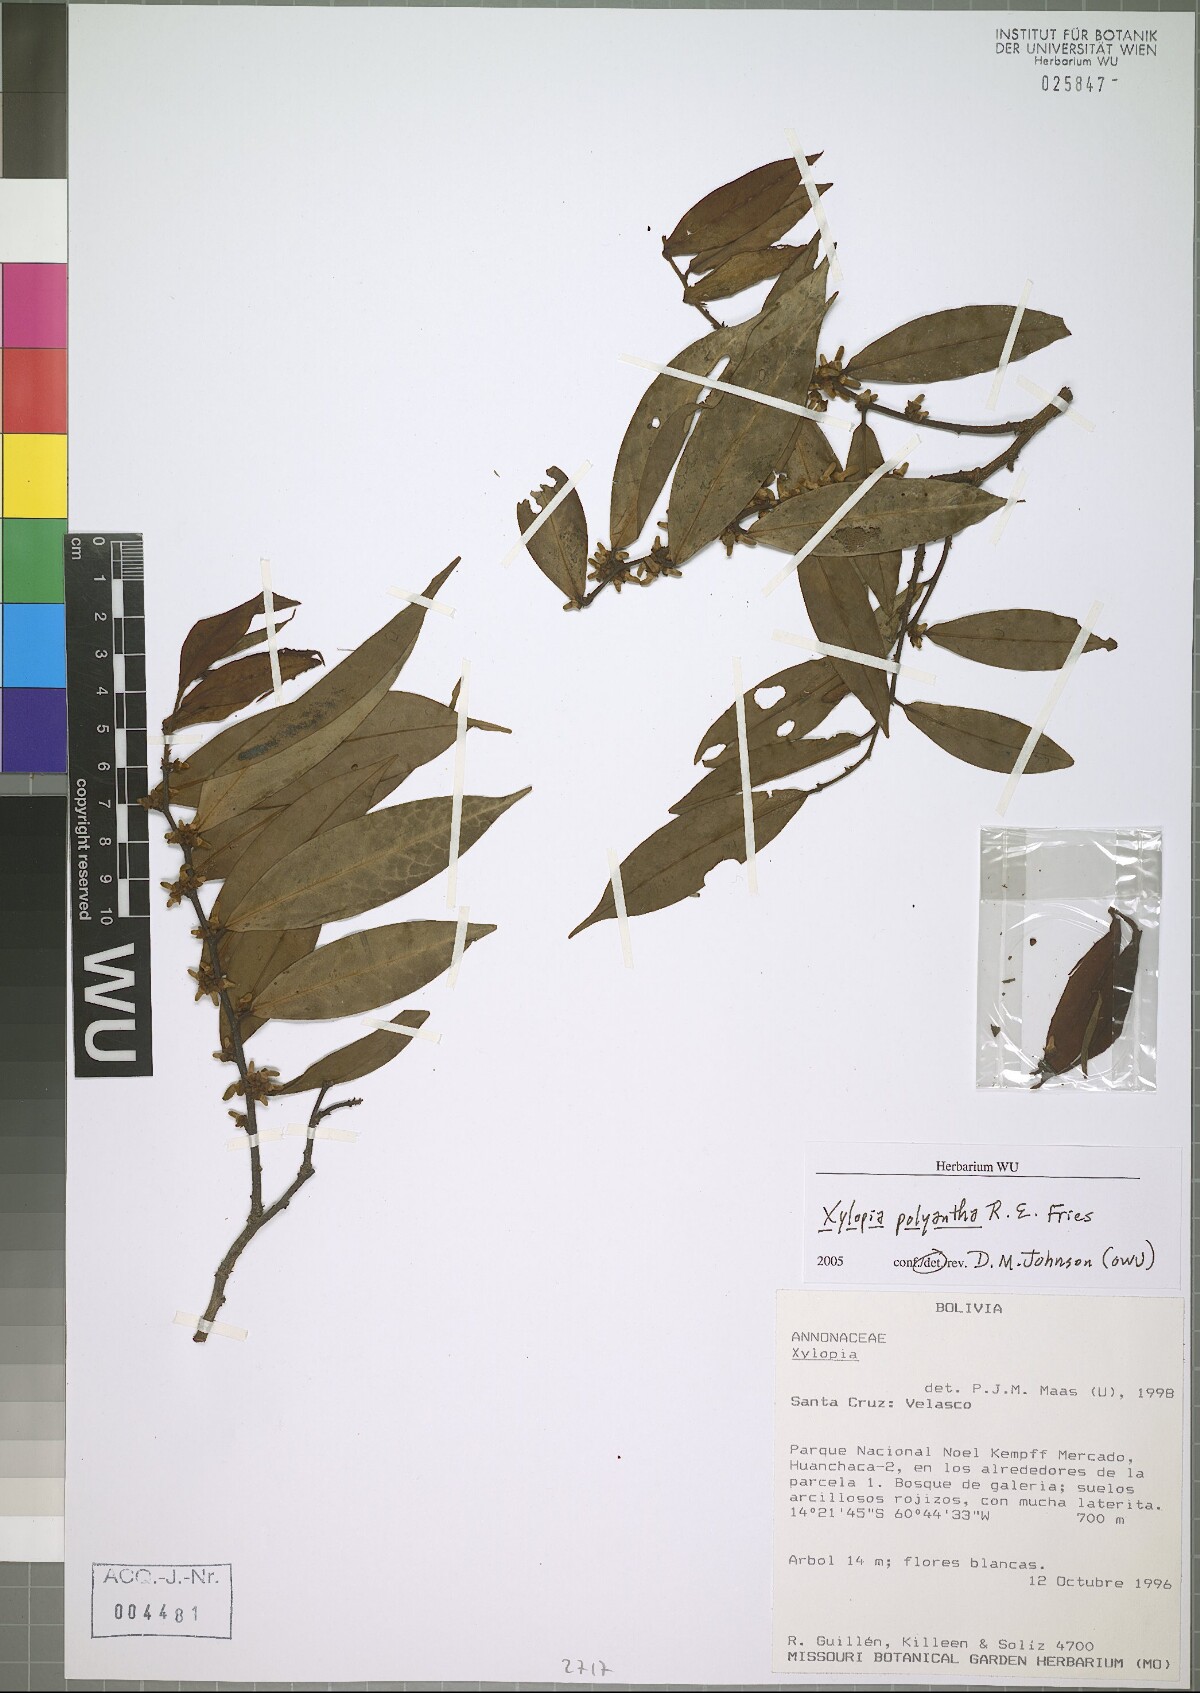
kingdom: Plantae
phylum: Tracheophyta
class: Magnoliopsida
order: Magnoliales
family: Annonaceae
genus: Xylopia
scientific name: Xylopia polyantha
